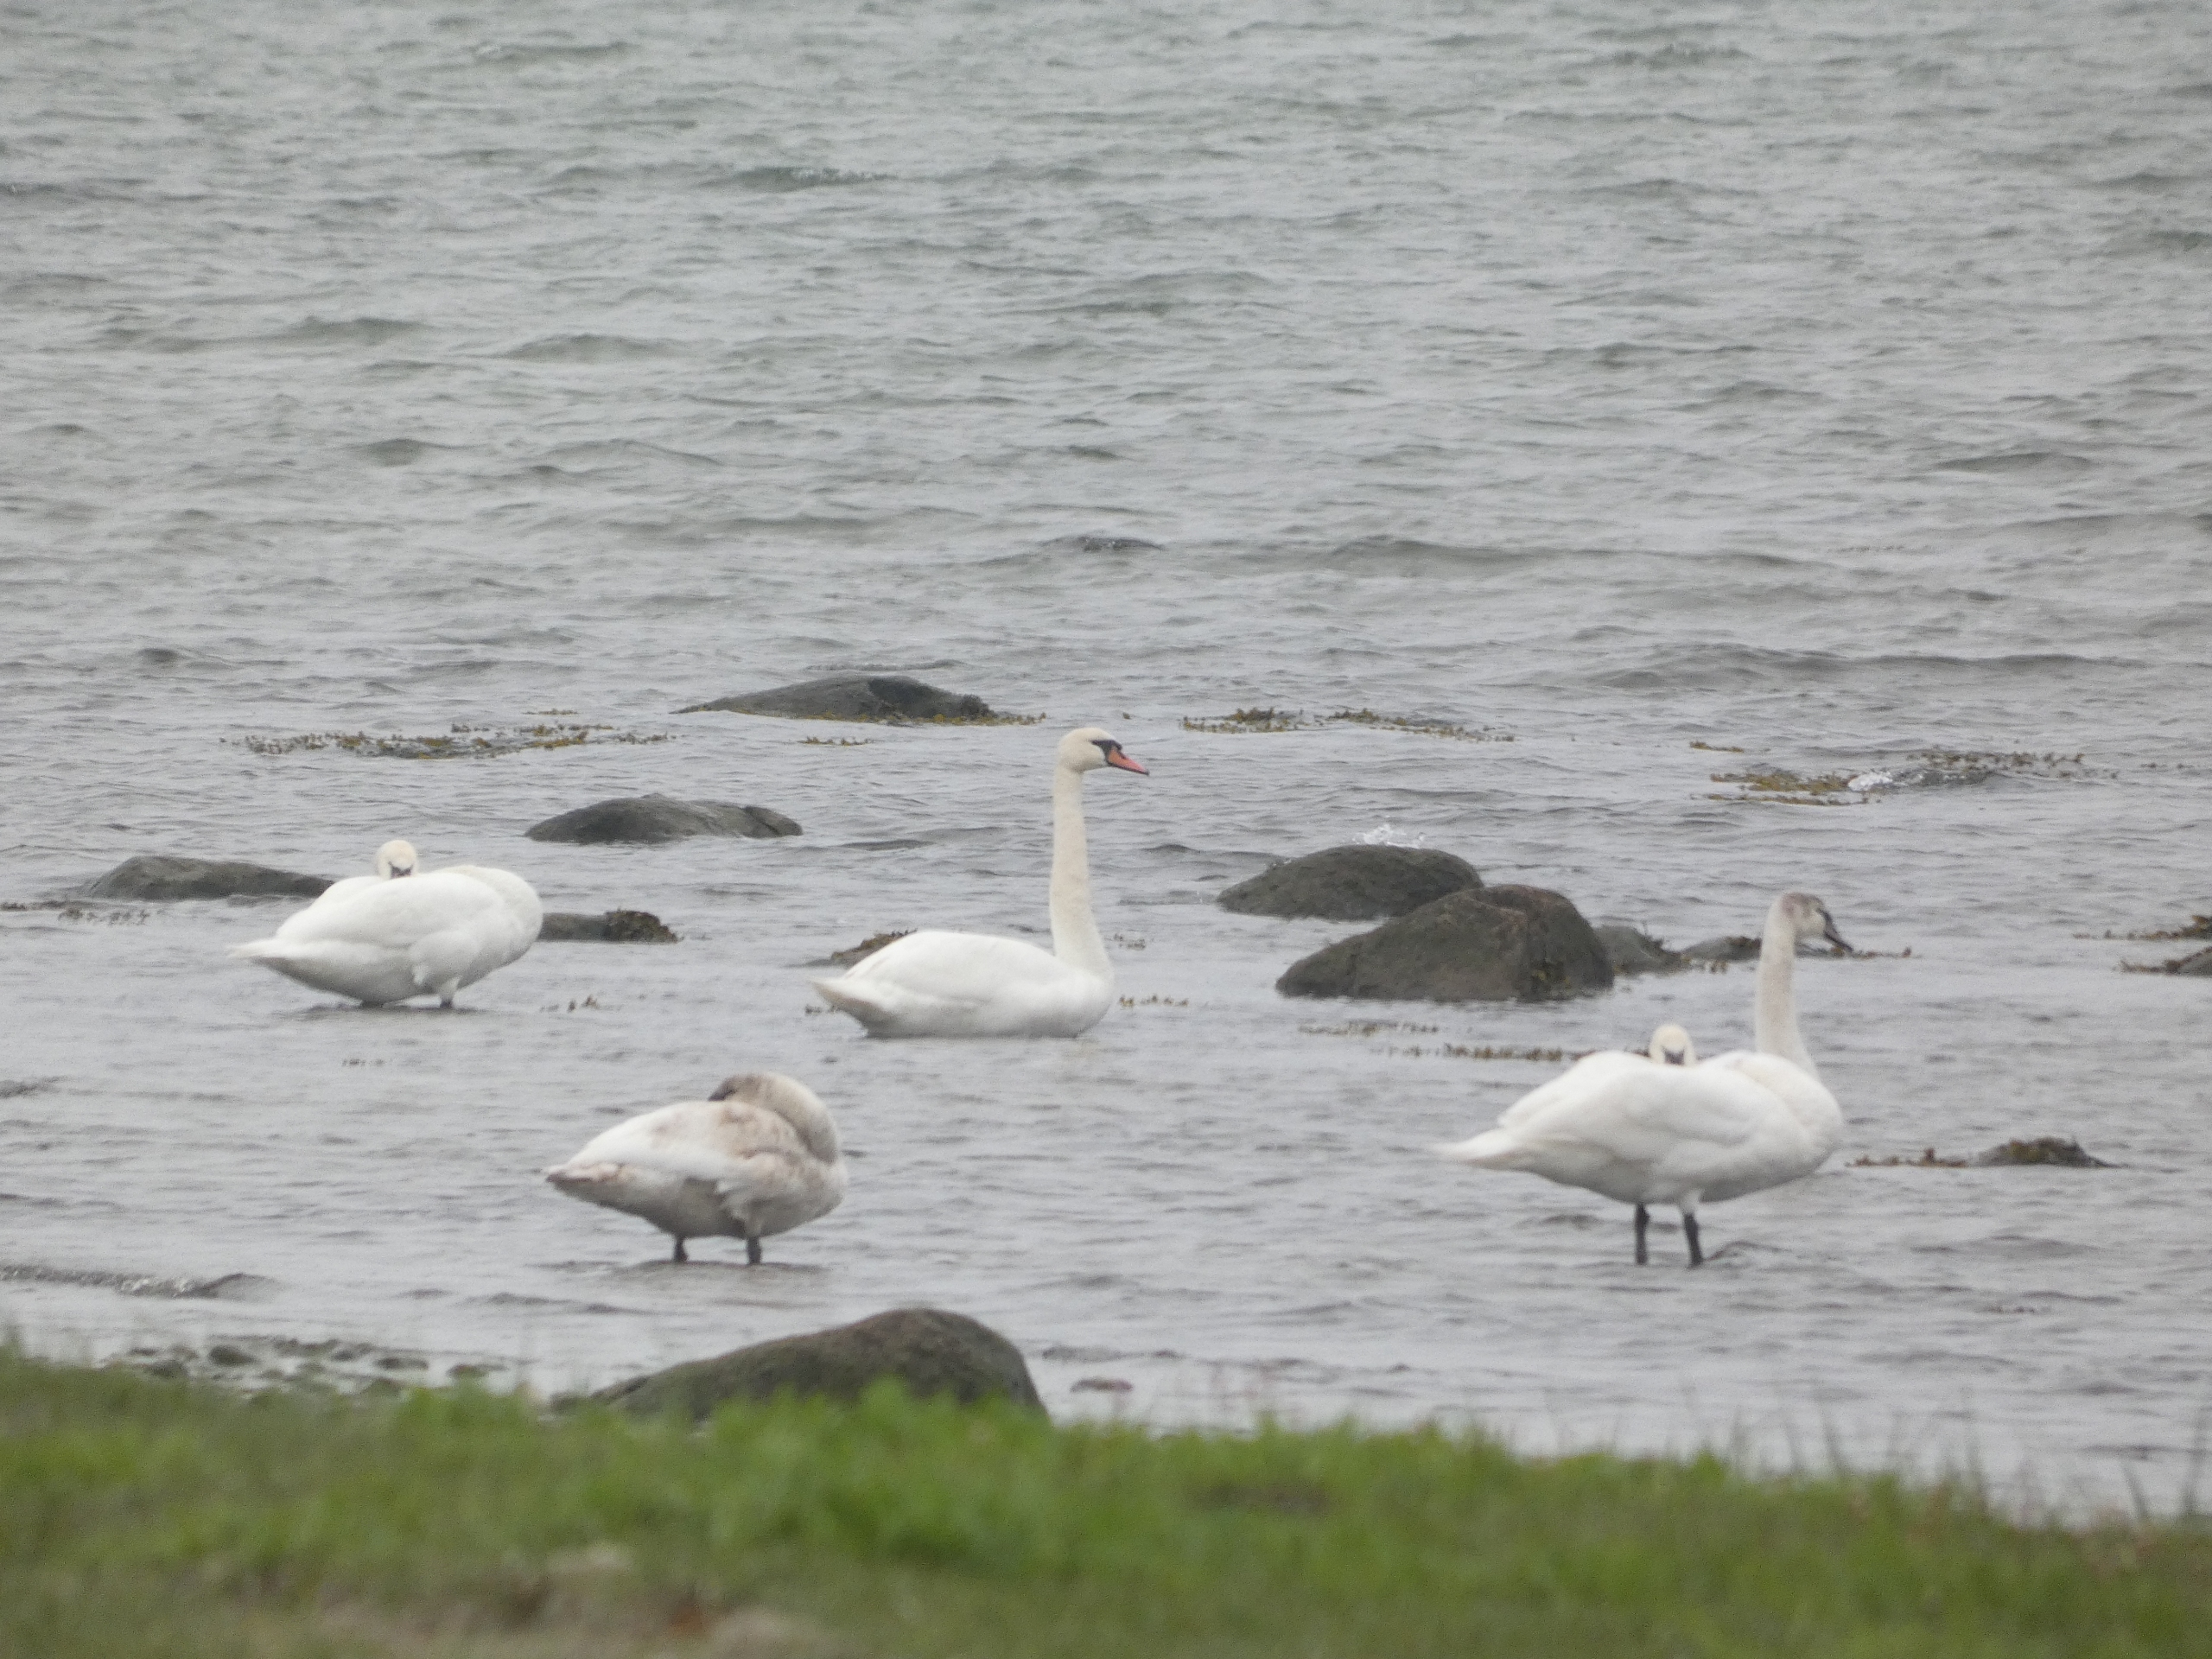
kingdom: Animalia
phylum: Chordata
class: Aves
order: Anseriformes
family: Anatidae
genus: Cygnus
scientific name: Cygnus olor
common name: Knopsvane
